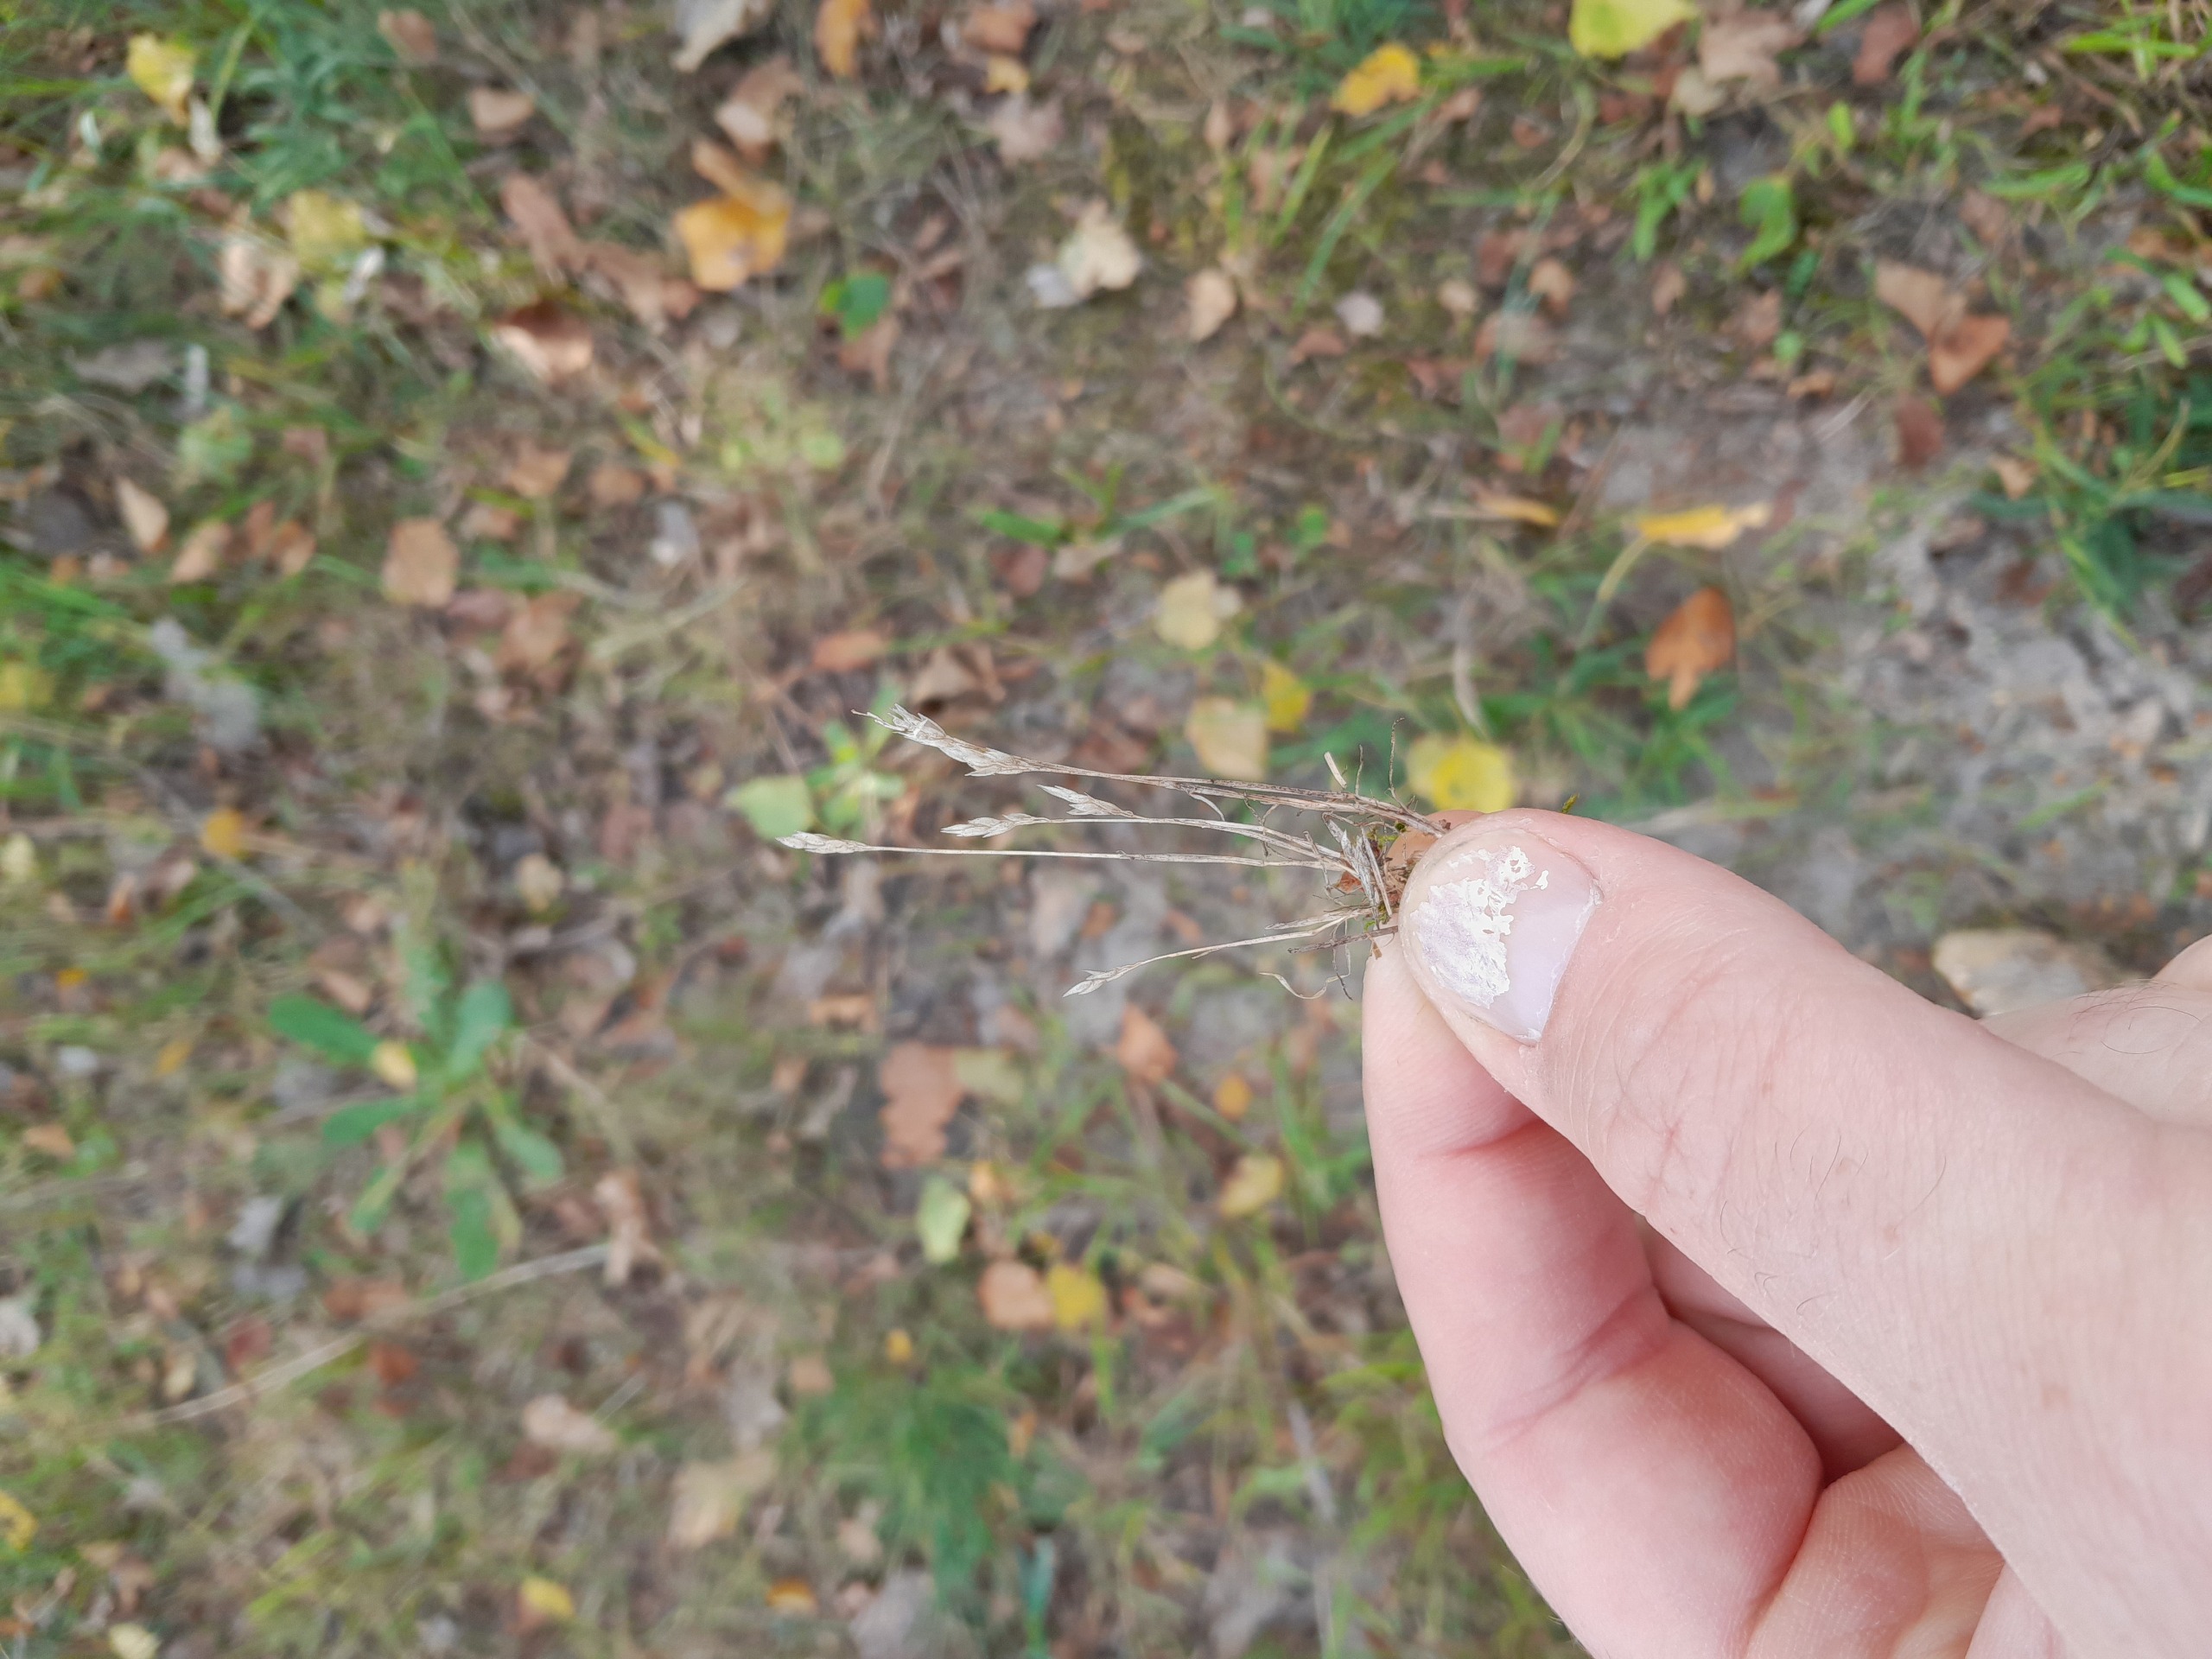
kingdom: Plantae
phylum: Tracheophyta
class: Liliopsida
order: Poales
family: Poaceae
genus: Aira
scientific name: Aira praecox
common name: Tidlig dværgbunke
